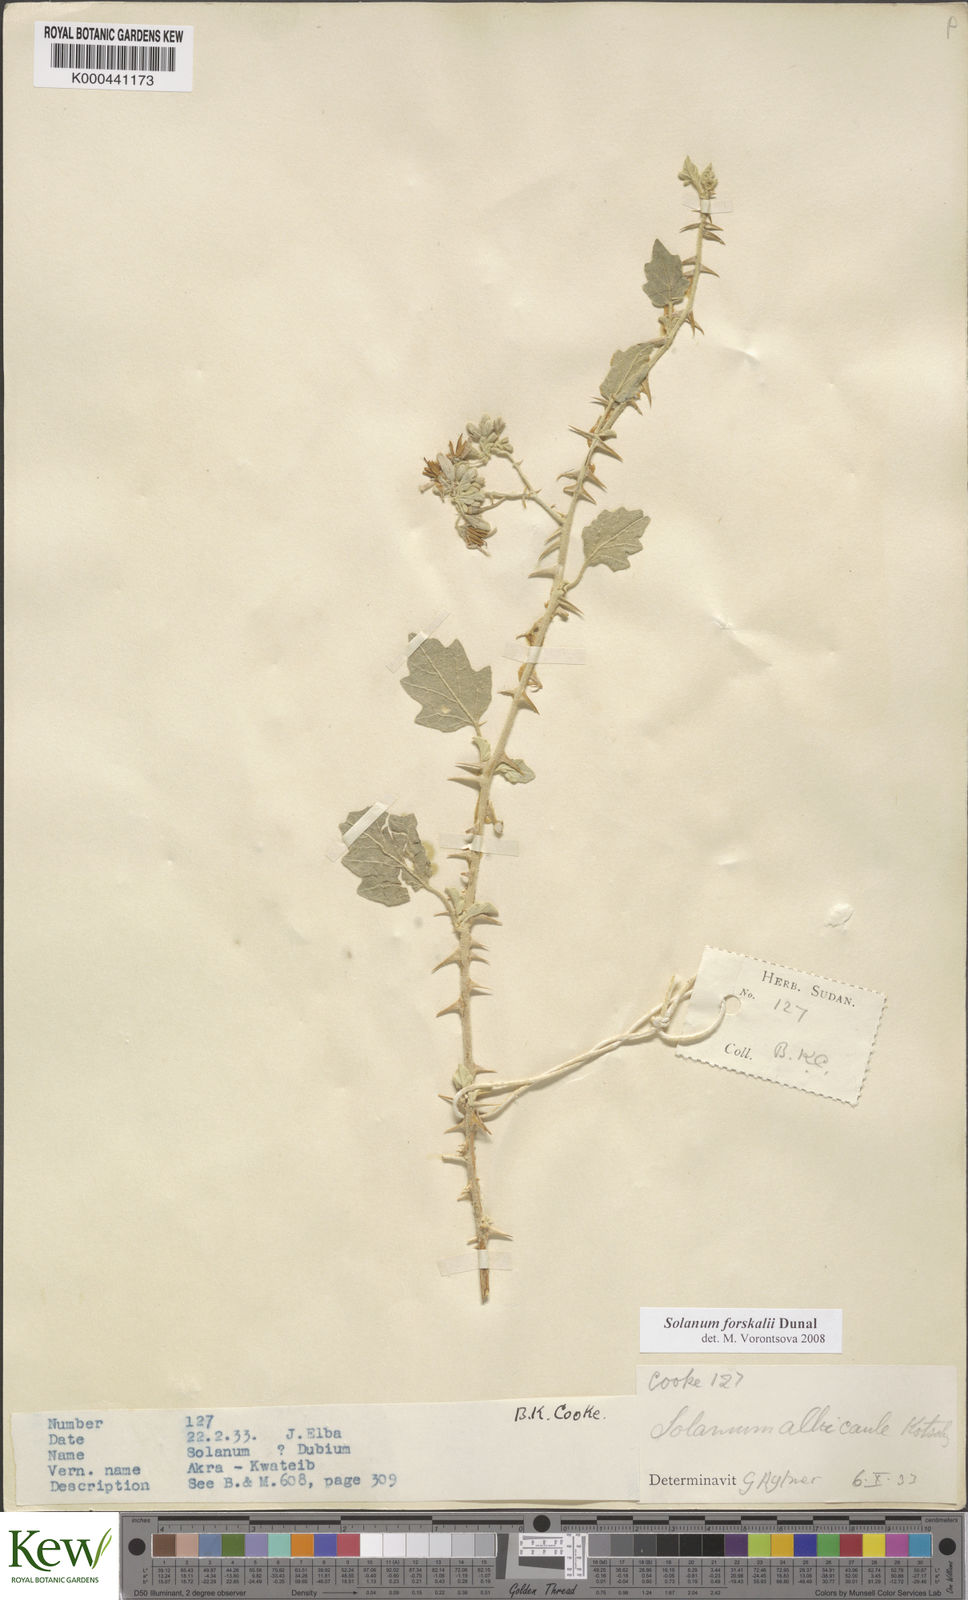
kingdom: Plantae
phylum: Tracheophyta
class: Magnoliopsida
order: Solanales
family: Solanaceae
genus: Solanum
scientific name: Solanum
